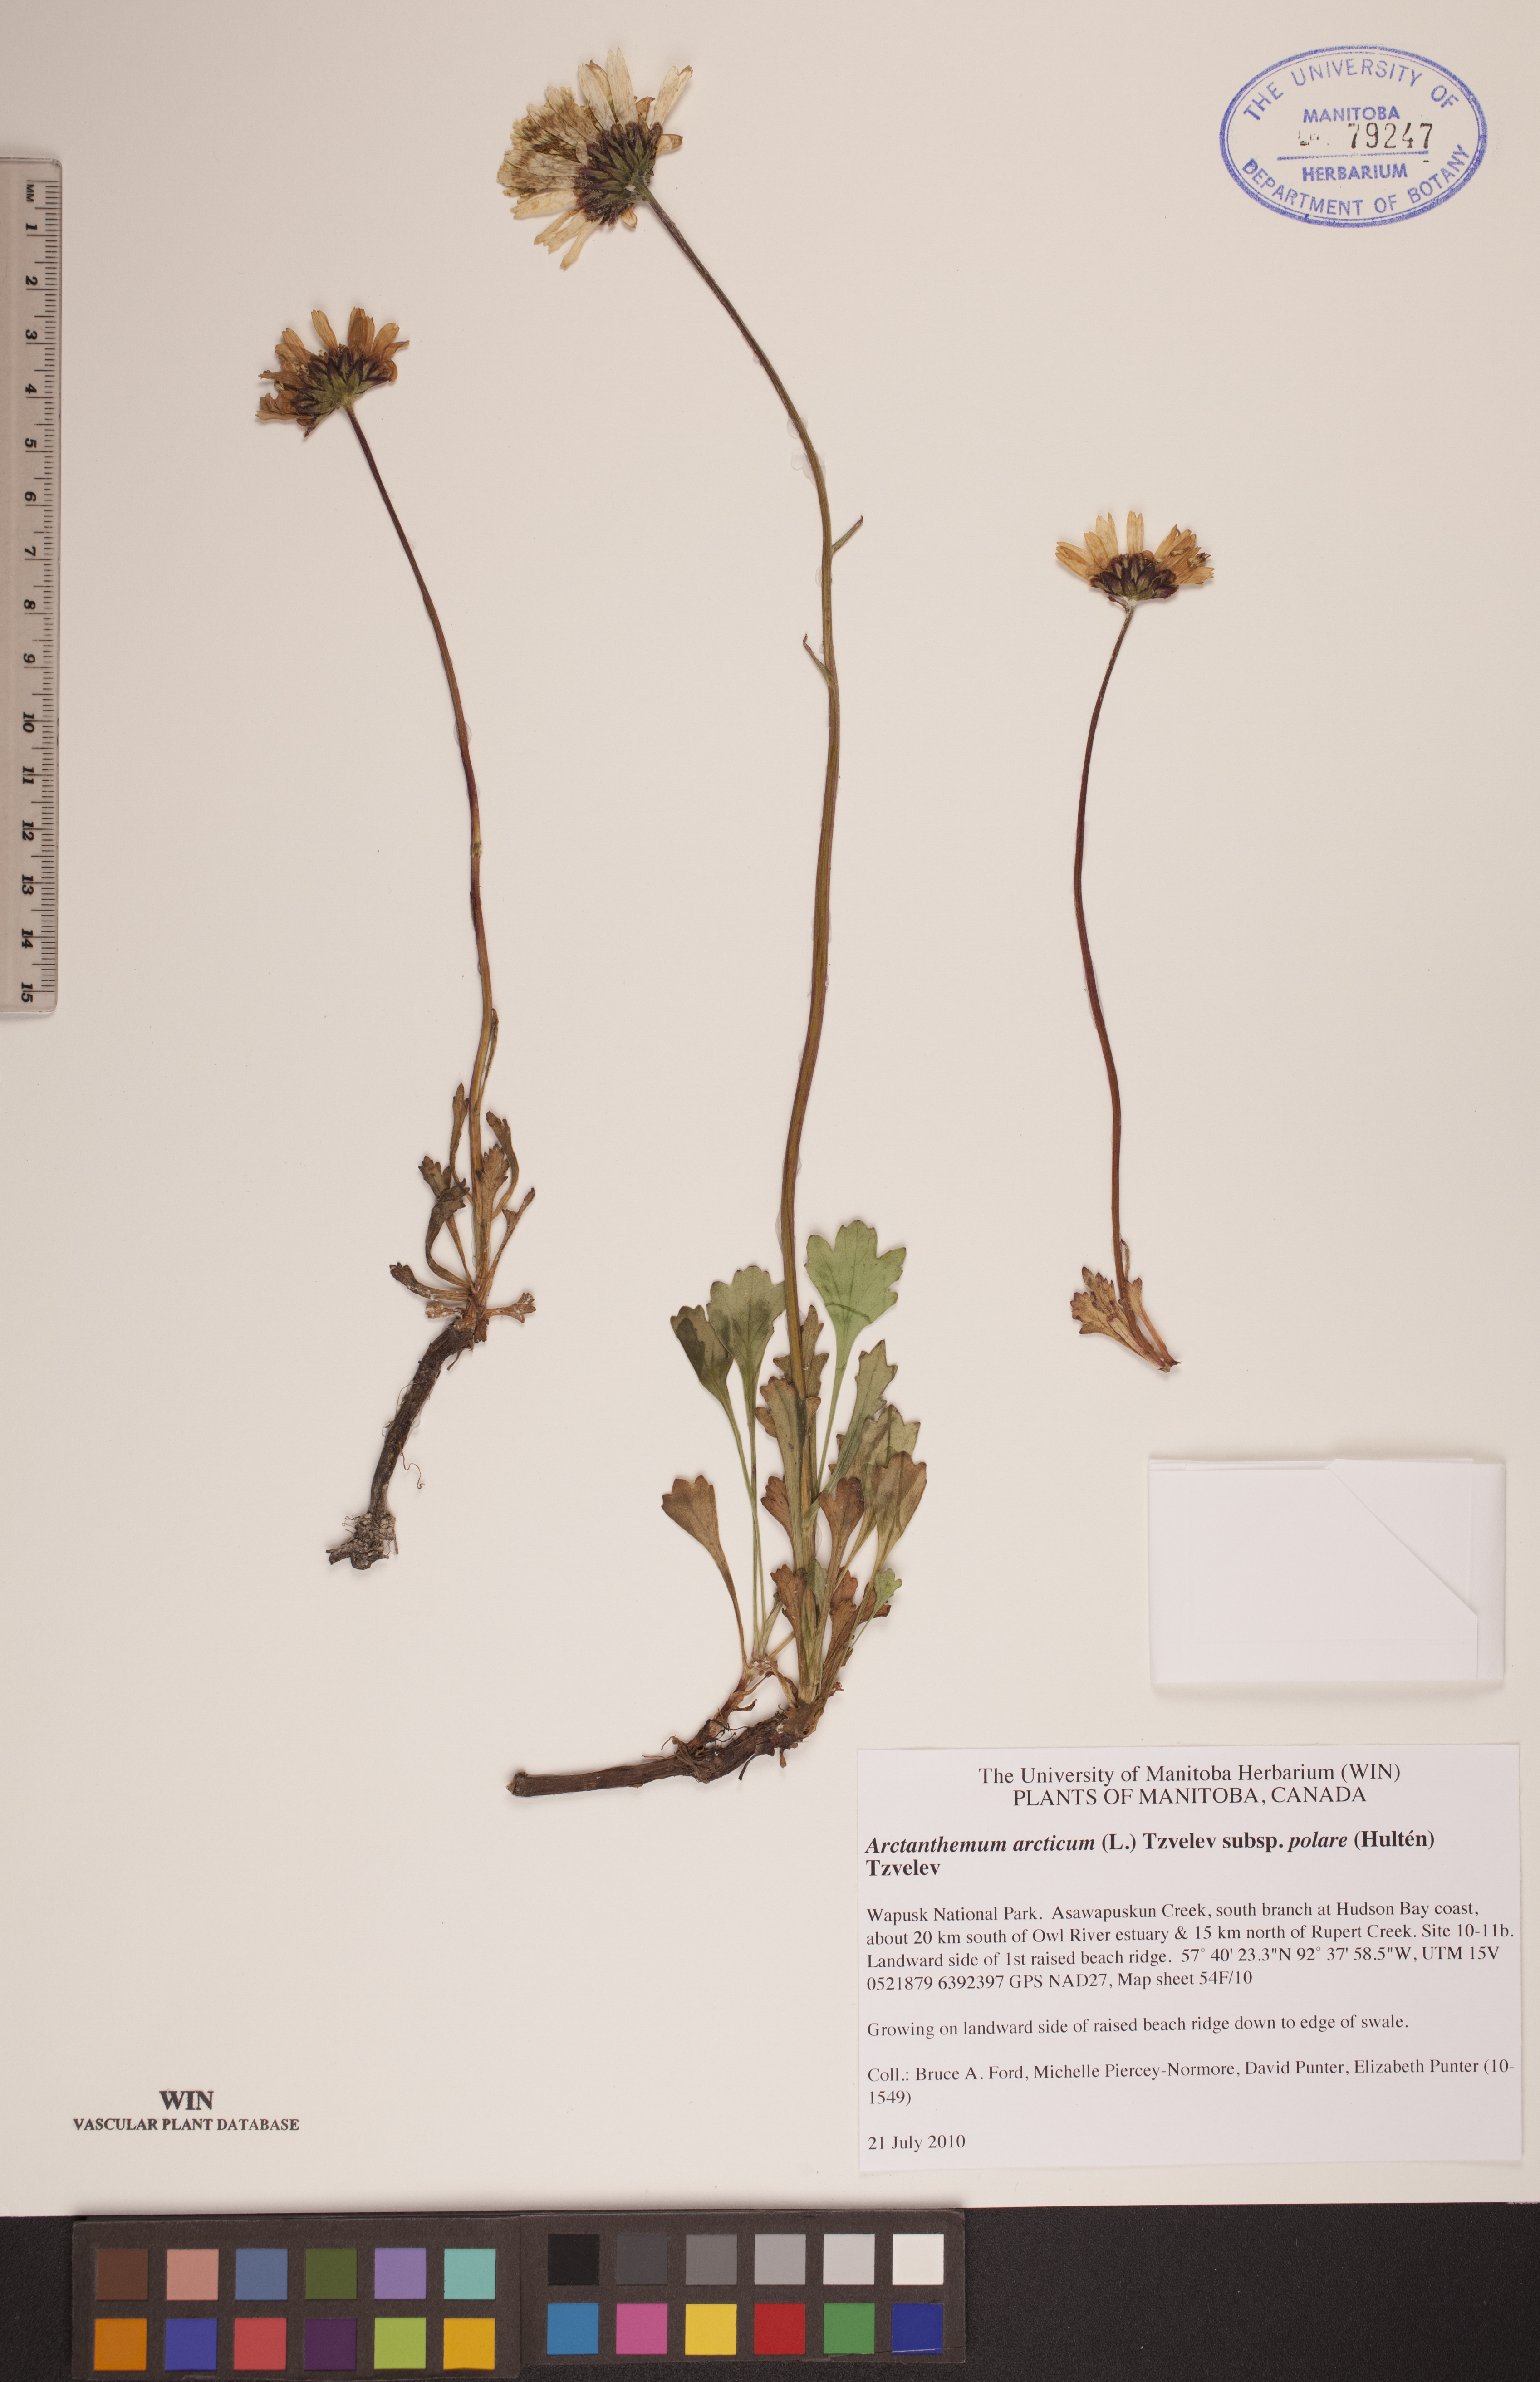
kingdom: Plantae
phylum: Tracheophyta
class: Magnoliopsida
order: Asterales
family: Asteraceae
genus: Arctanthemum
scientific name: Arctanthemum arcticum
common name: Arctic daisy
